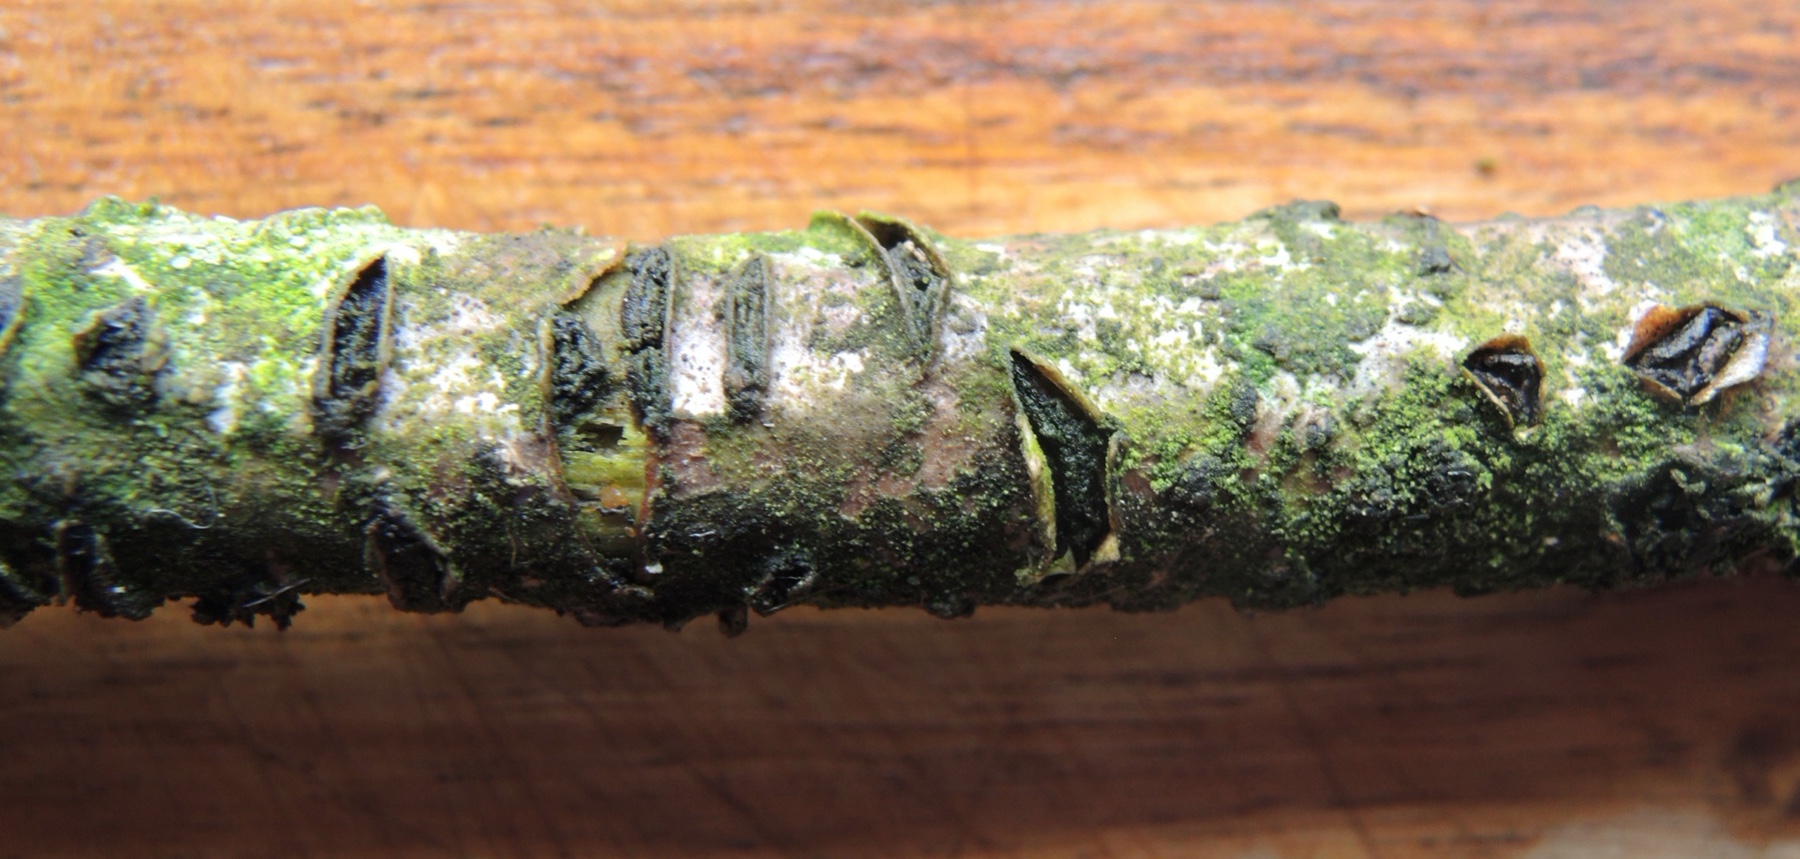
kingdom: Fungi
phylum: Ascomycota
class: Leotiomycetes
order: Rhytismatales
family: Rhytismataceae
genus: Colpoma
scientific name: Colpoma quercinum
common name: ege-sprækkeskive
